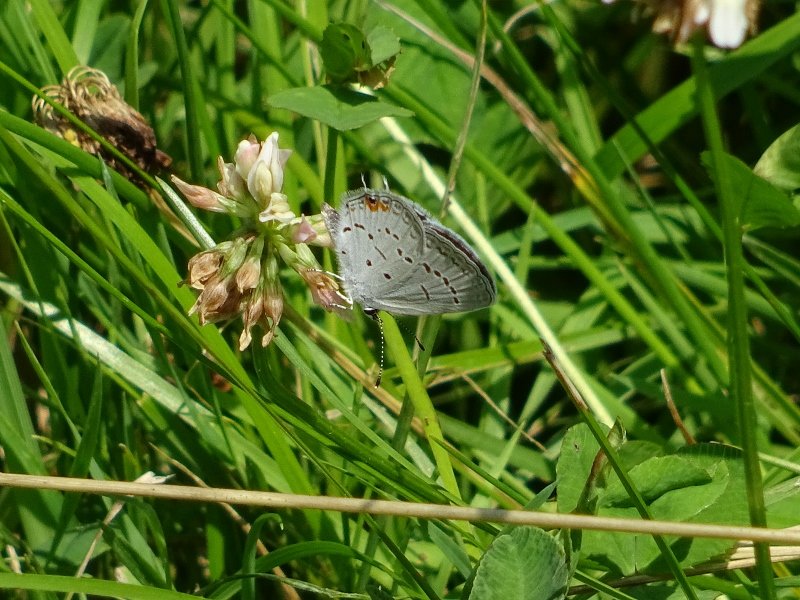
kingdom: Animalia
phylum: Arthropoda
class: Insecta
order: Lepidoptera
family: Lycaenidae
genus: Elkalyce
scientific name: Elkalyce comyntas
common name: Eastern Tailed-Blue
